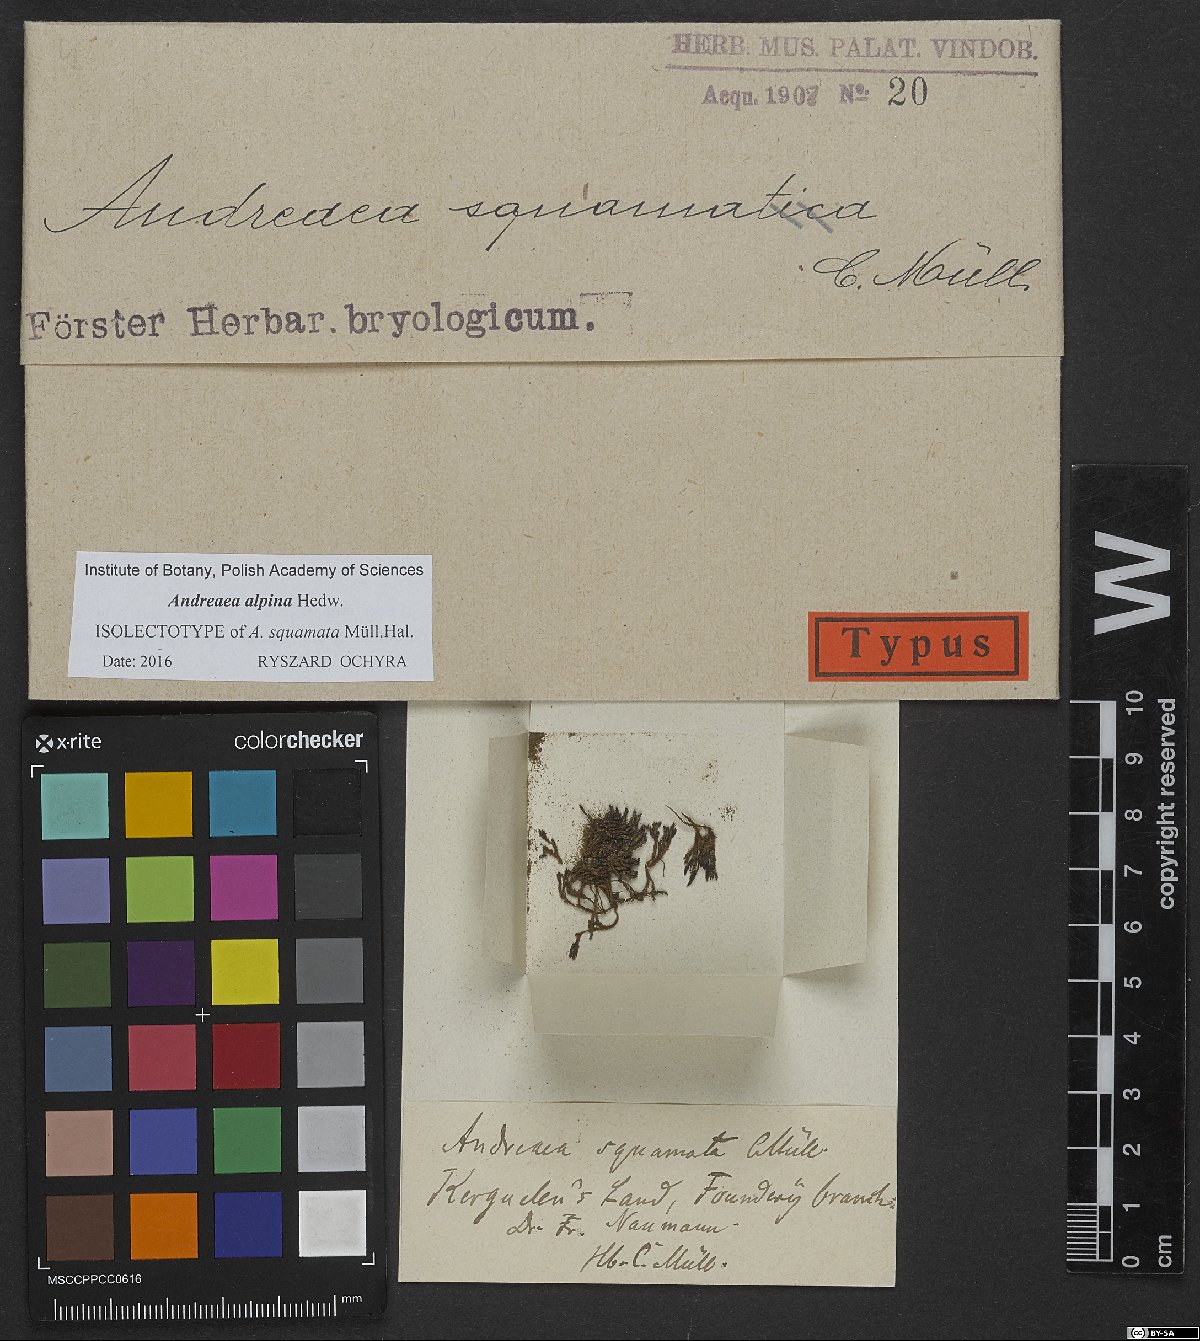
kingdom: Plantae
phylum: Bryophyta
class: Andreaeopsida
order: Andreaeales
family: Andreaeaceae
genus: Andreaea
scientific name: Andreaea hookeri
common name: Alpine rock-moss
